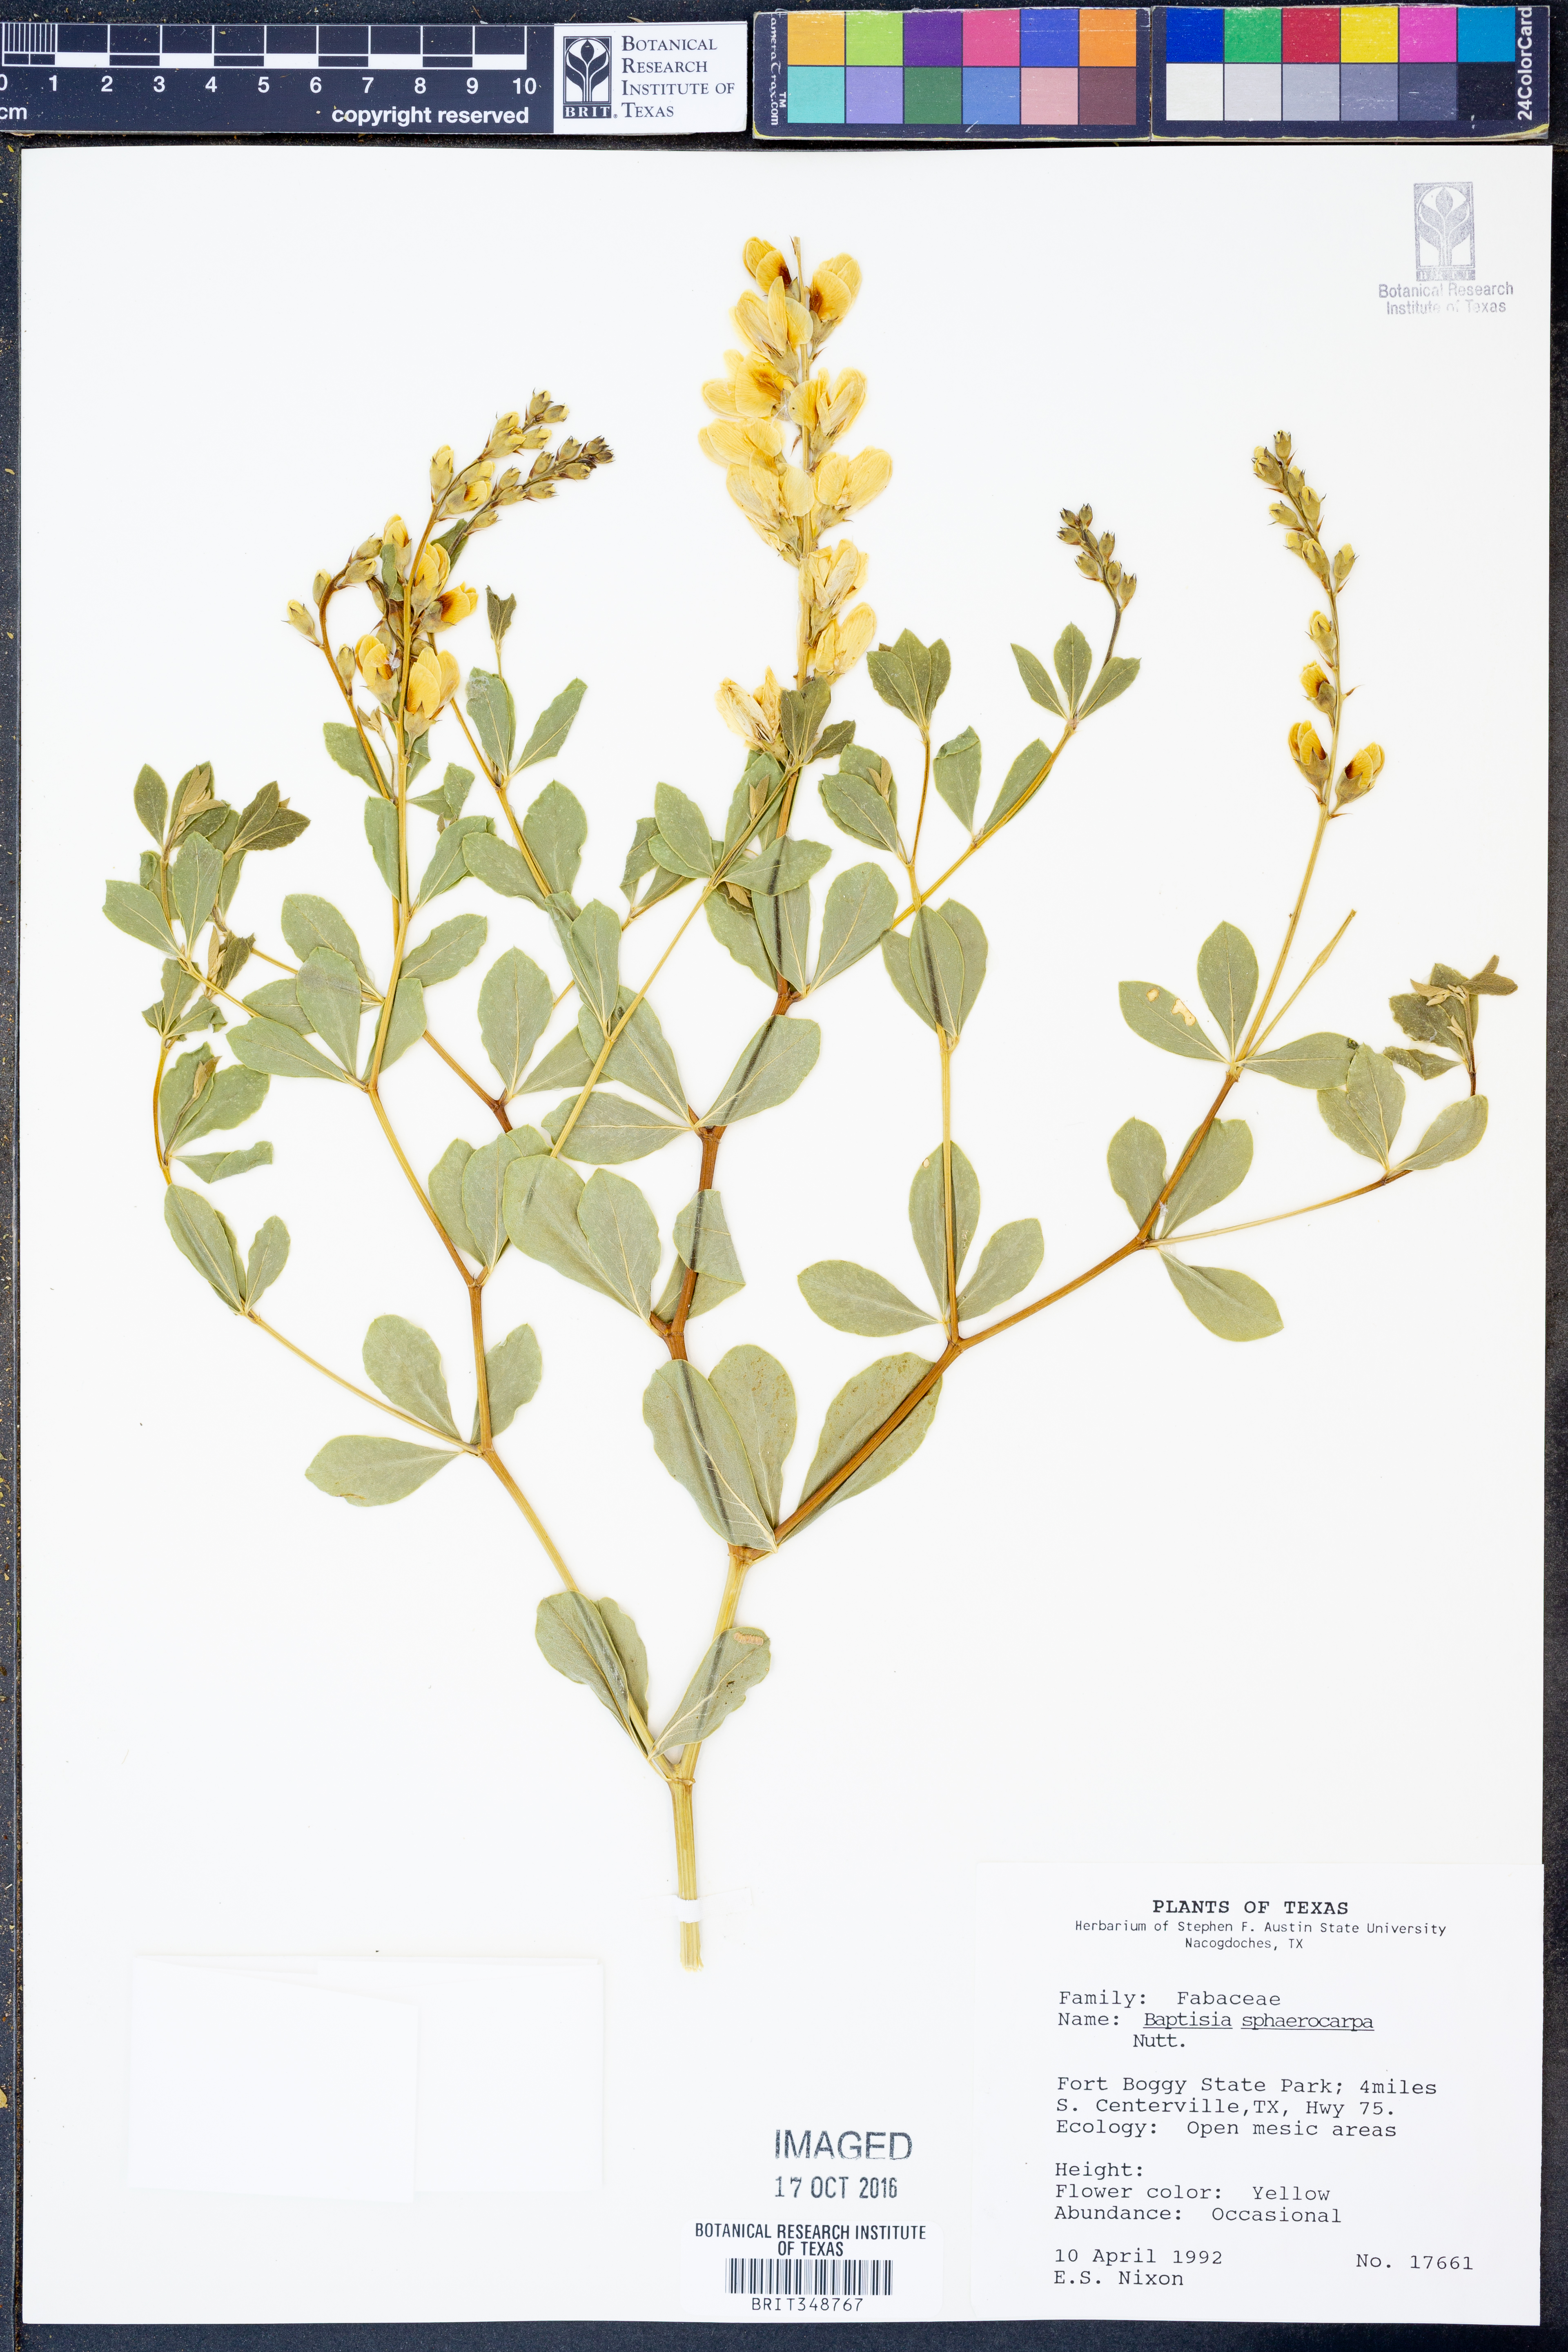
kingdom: Plantae
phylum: Tracheophyta
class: Magnoliopsida
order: Fabales
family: Fabaceae
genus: Baptisia
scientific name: Baptisia sphaerocarpa
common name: Round wild indigo
